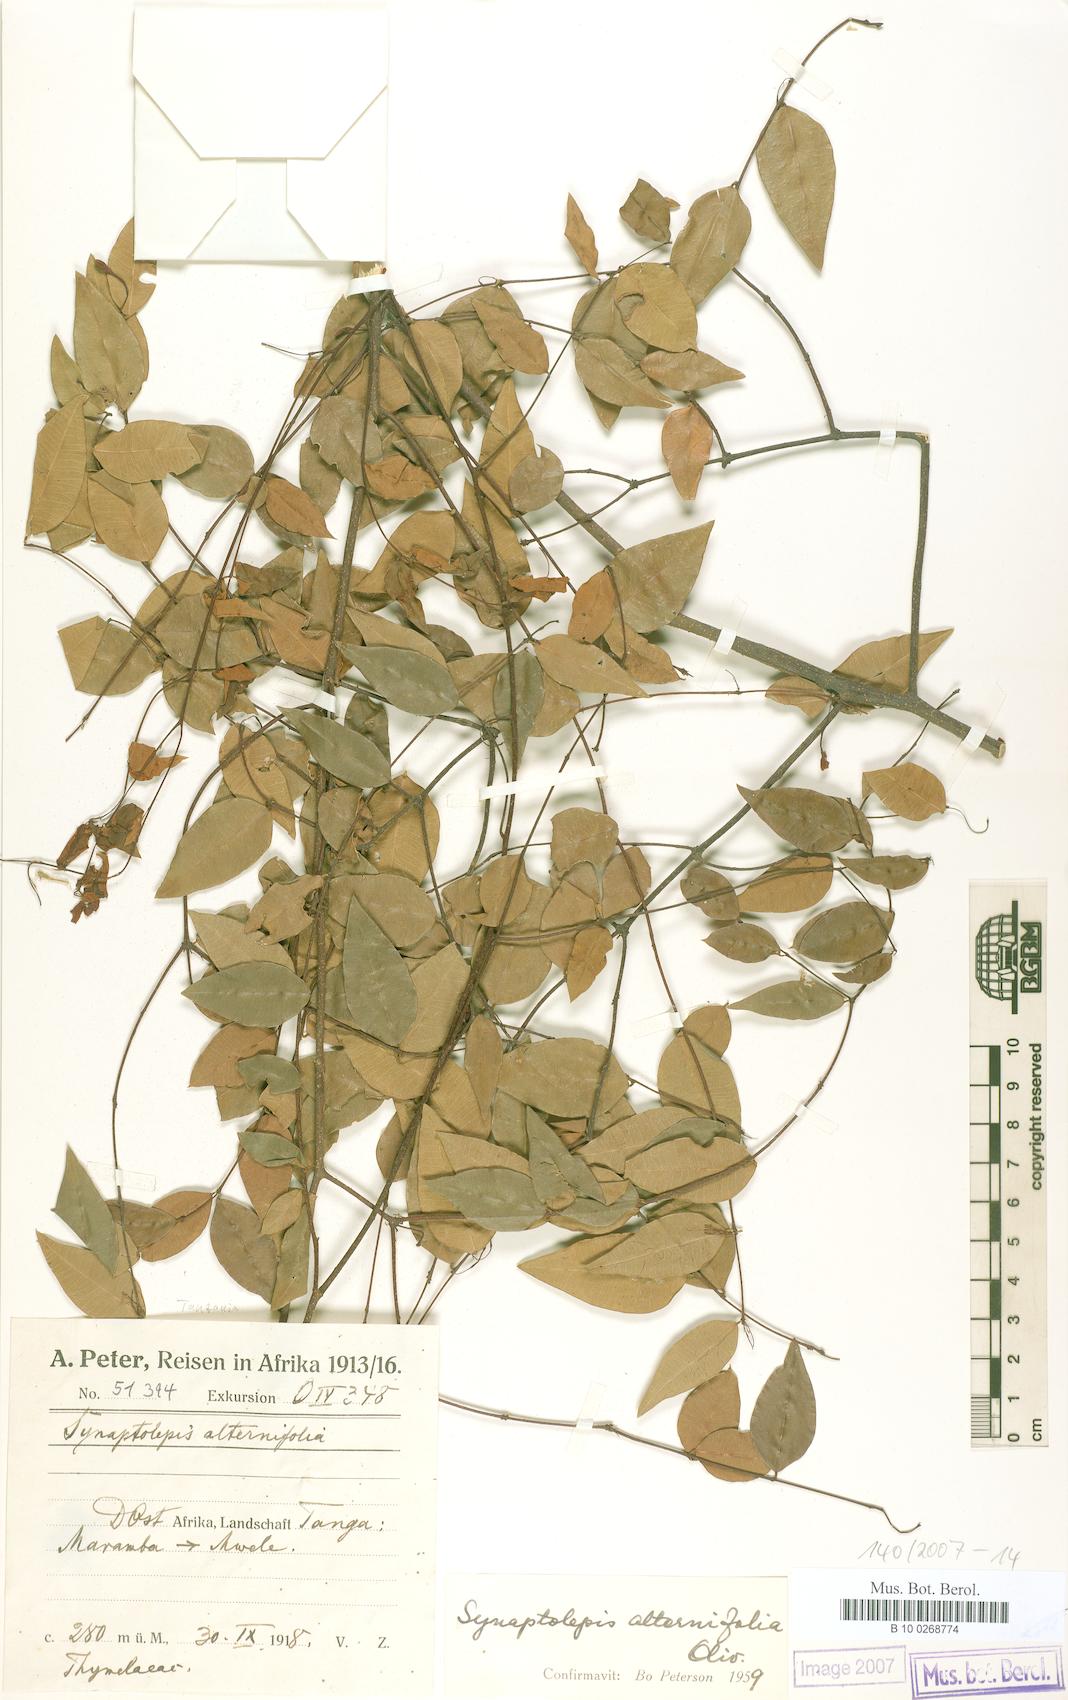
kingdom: Plantae
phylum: Tracheophyta
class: Magnoliopsida
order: Malvales
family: Thymelaeaceae
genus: Synaptolepis
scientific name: Synaptolepis alternifolia
